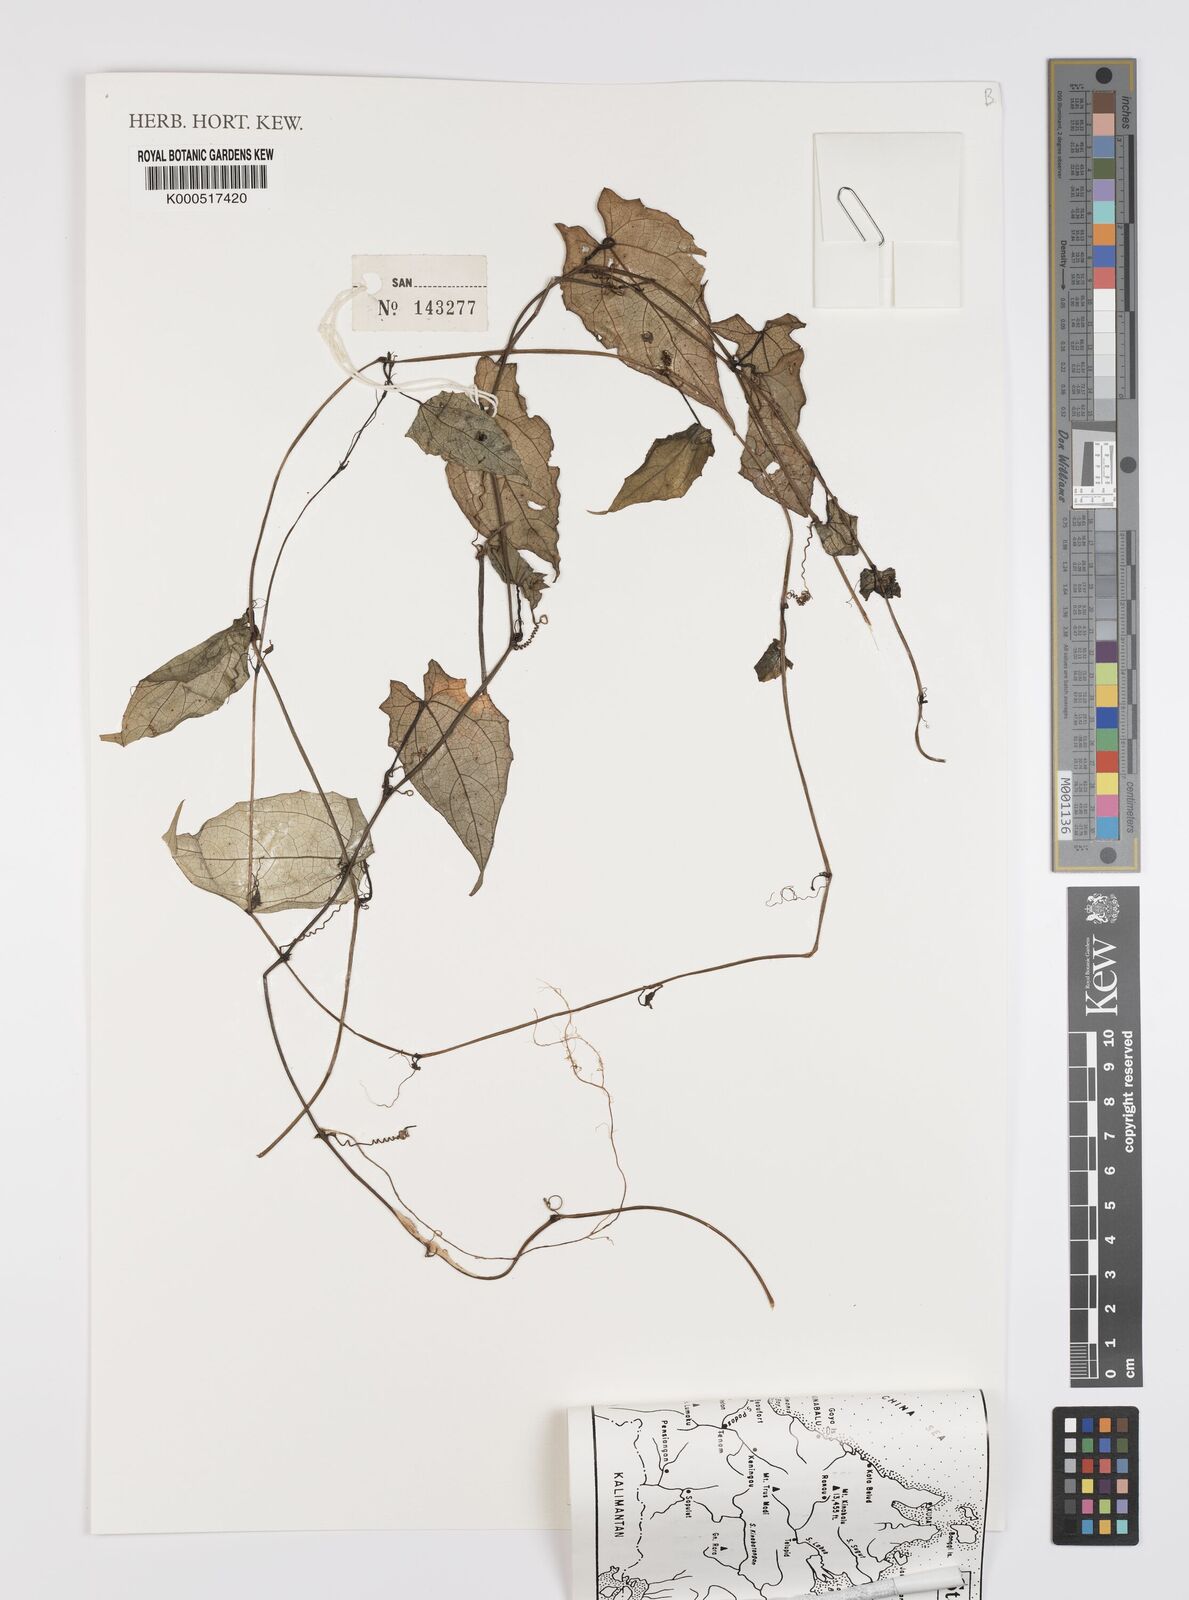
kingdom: Plantae
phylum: Tracheophyta
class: Magnoliopsida
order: Cucurbitales
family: Cucurbitaceae
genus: Trichosanthes
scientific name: Trichosanthes
